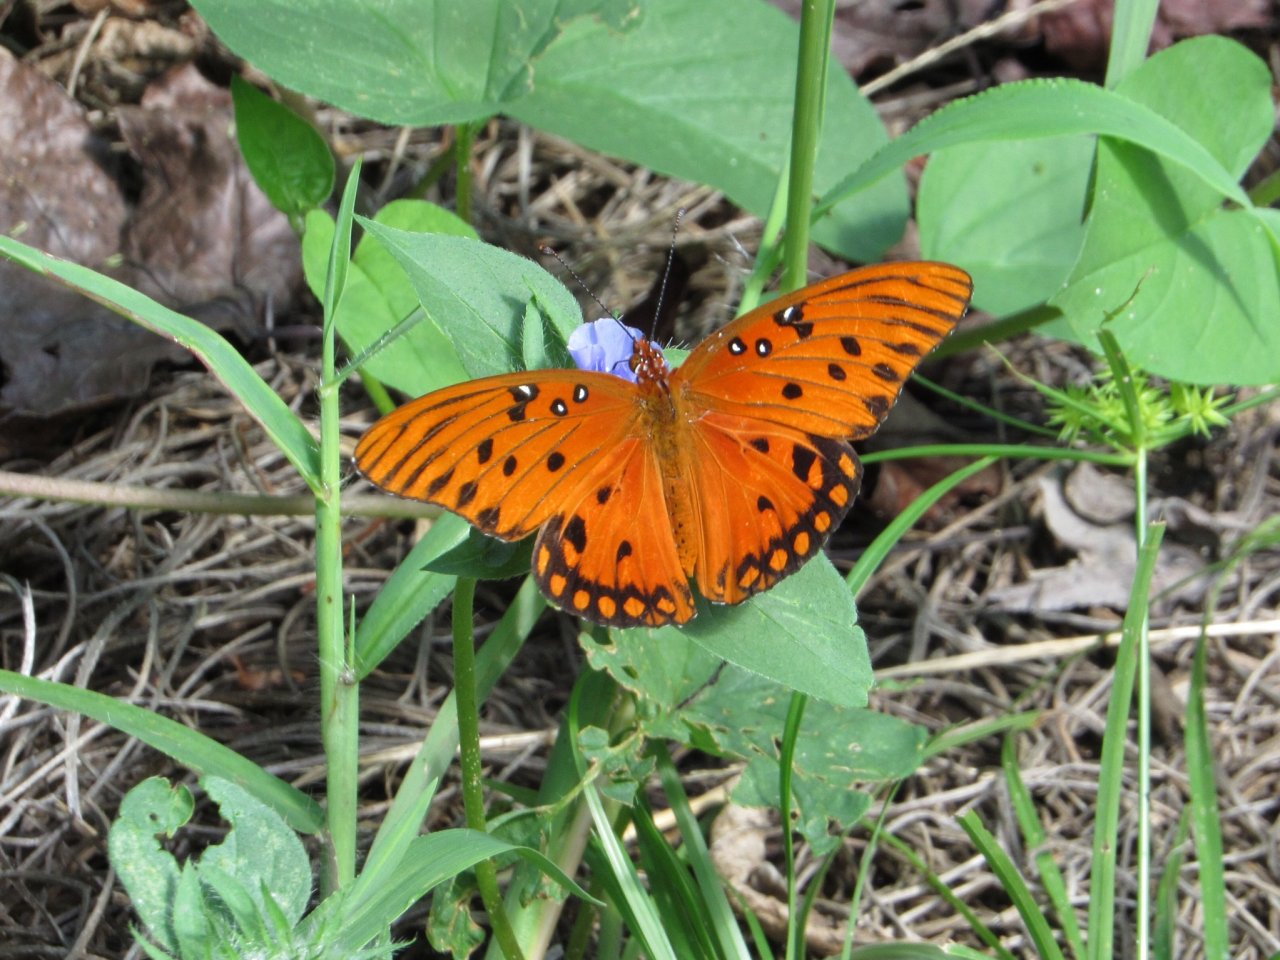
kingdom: Animalia
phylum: Arthropoda
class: Insecta
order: Lepidoptera
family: Nymphalidae
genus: Dione
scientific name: Dione vanillae
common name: Gulf Fritillary
